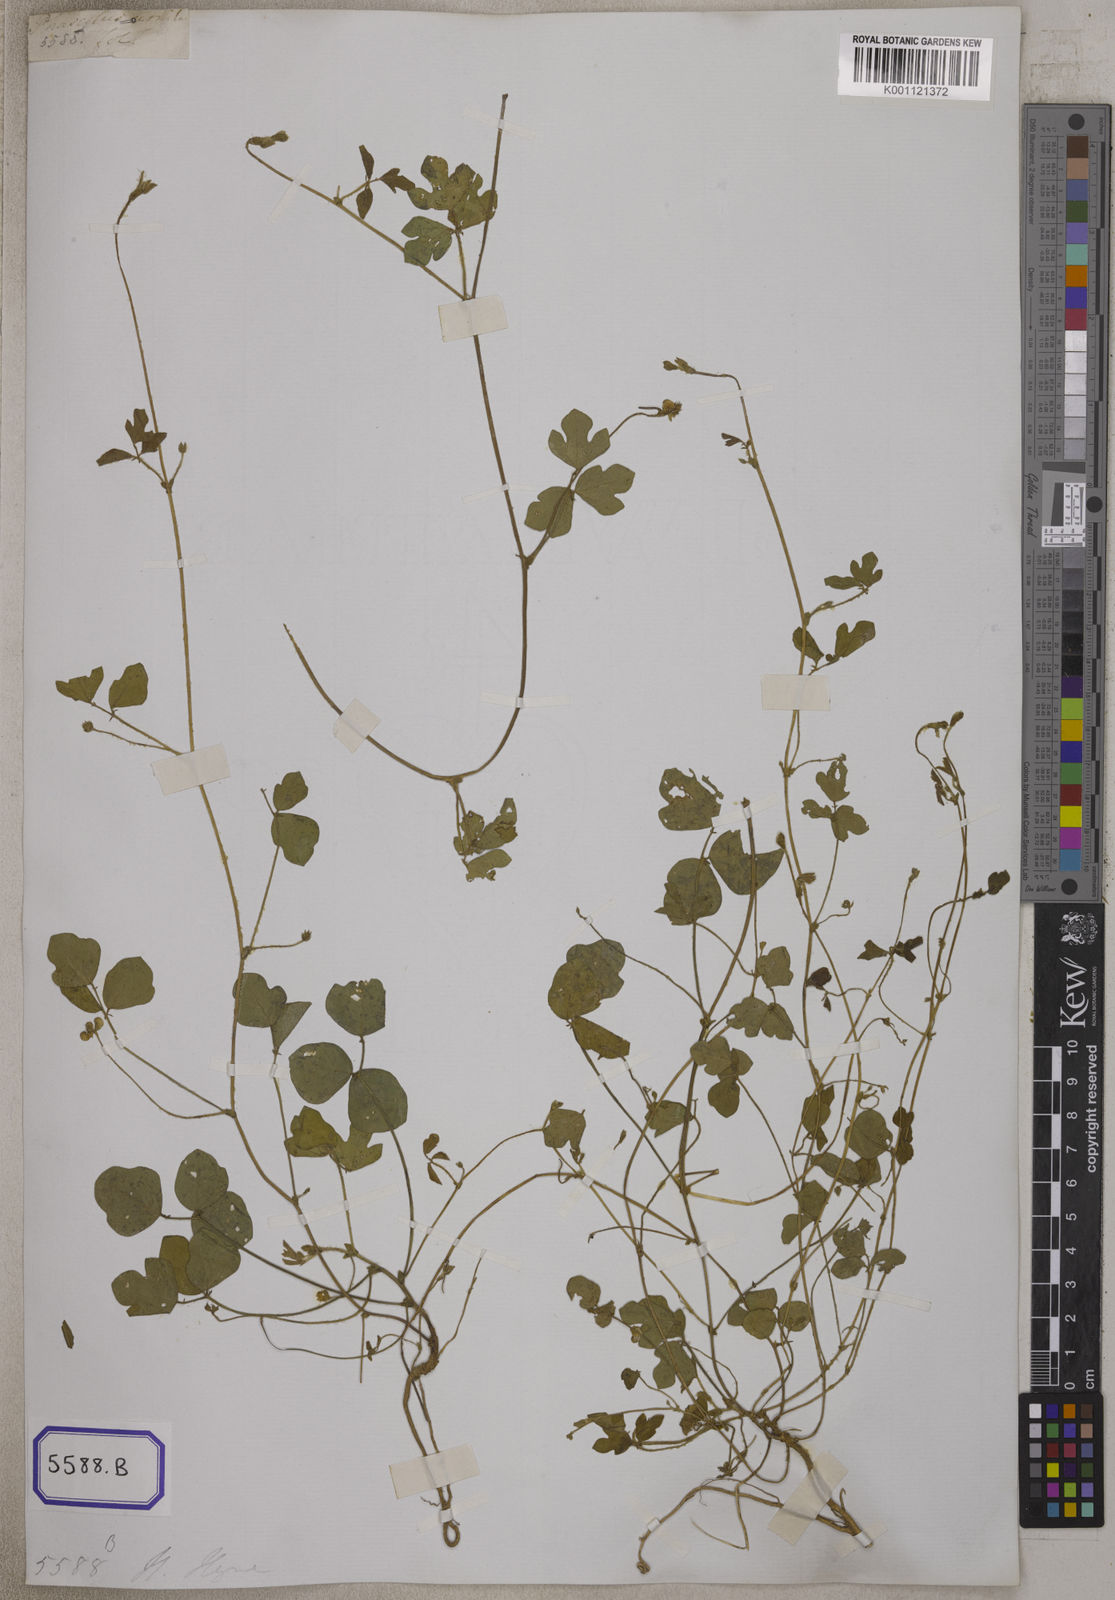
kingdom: Plantae
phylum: Tracheophyta
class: Magnoliopsida
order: Fabales
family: Fabaceae
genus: Phaseolus
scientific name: Phaseolus
